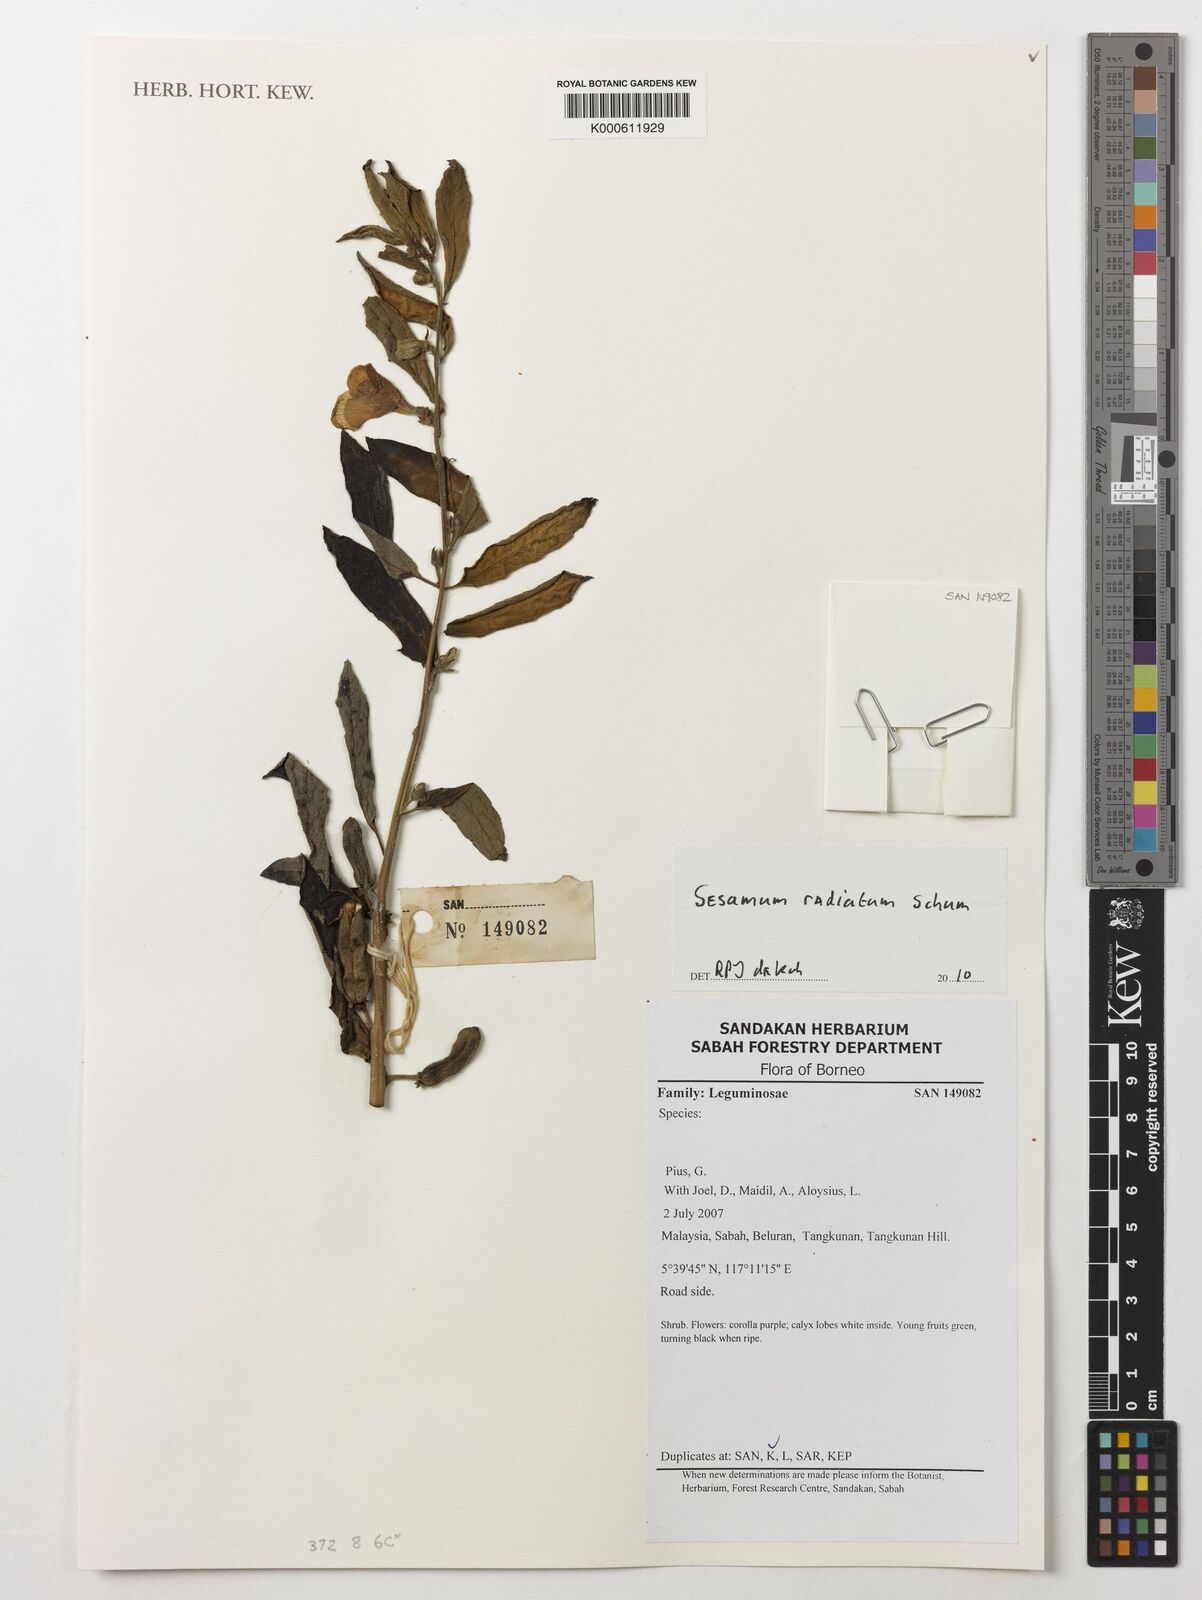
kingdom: Plantae
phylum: Tracheophyta
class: Magnoliopsida
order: Lamiales
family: Pedaliaceae
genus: Sesamum
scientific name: Sesamum
